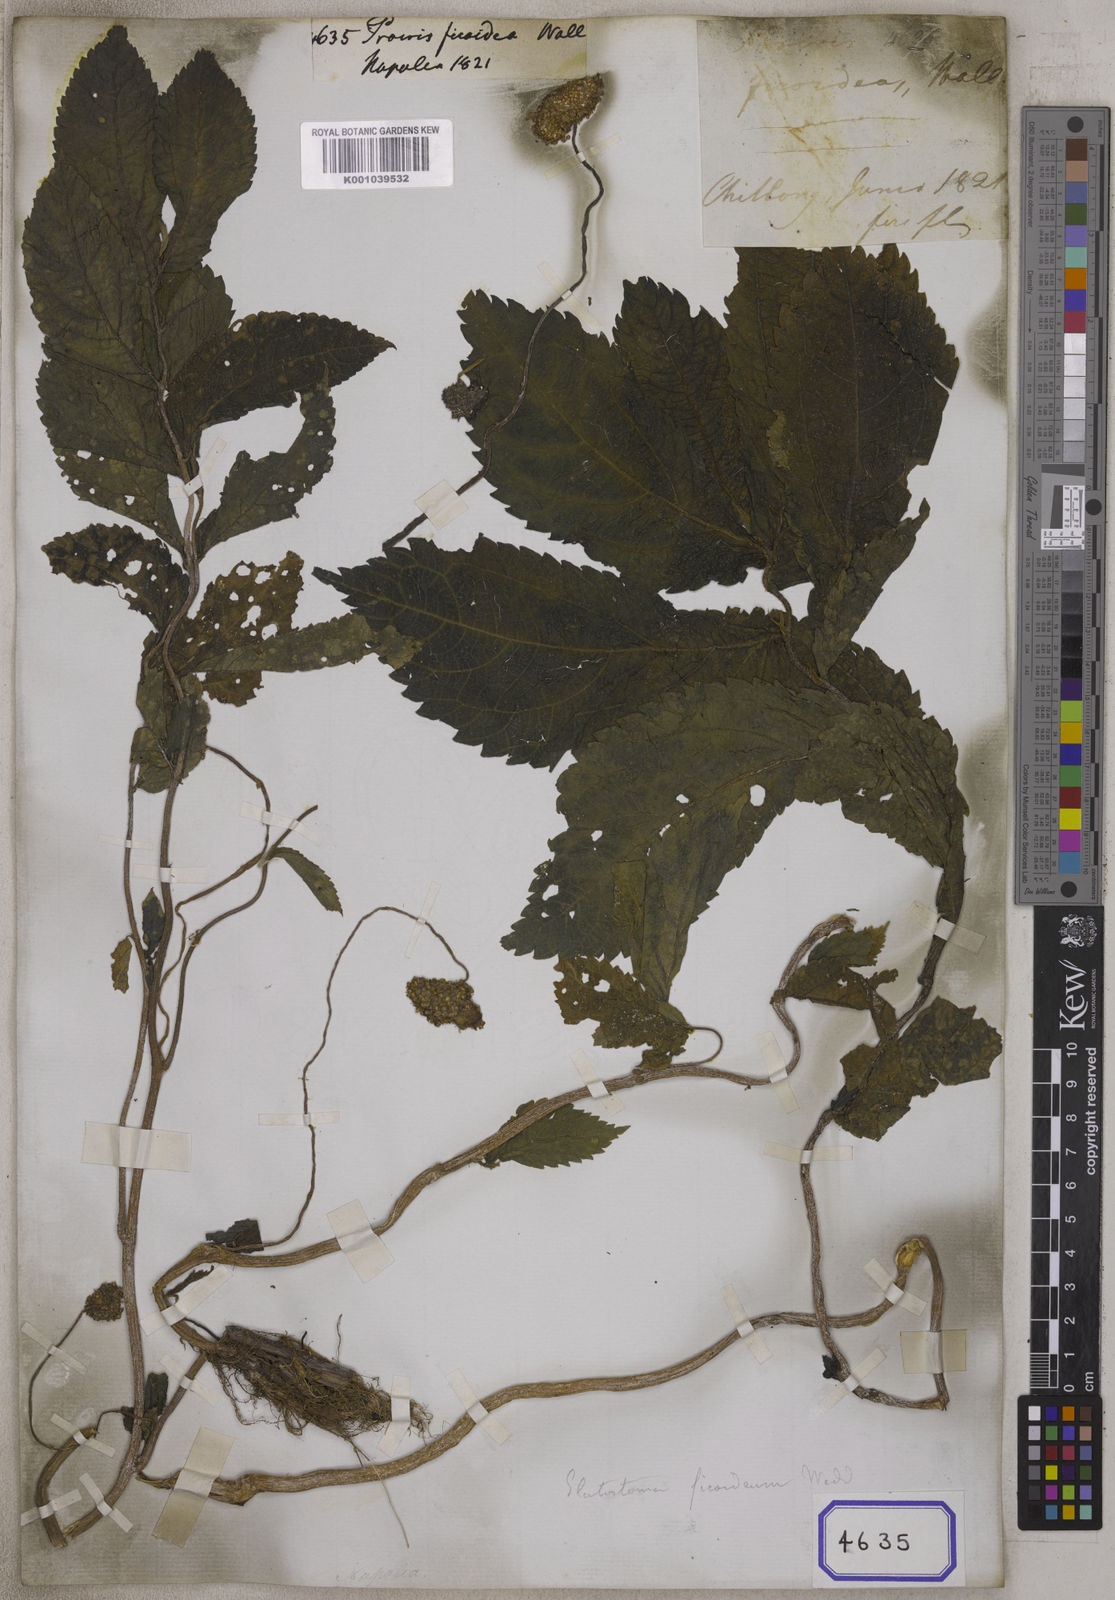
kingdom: Plantae
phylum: Tracheophyta
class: Magnoliopsida
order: Rosales
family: Urticaceae
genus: Elatostema
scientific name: Elatostema ficoides
